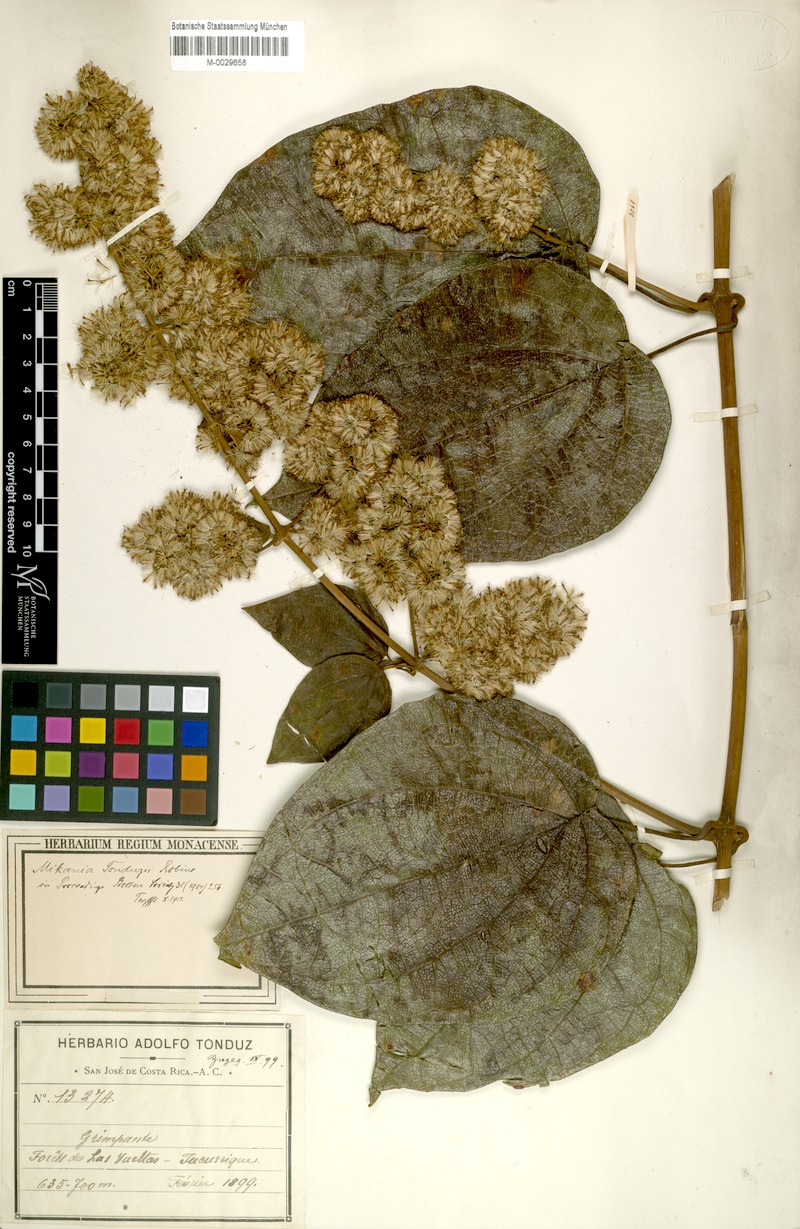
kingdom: Plantae
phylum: Tracheophyta
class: Magnoliopsida
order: Asterales
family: Asteraceae
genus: Mikania
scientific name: Mikania tonduzii
